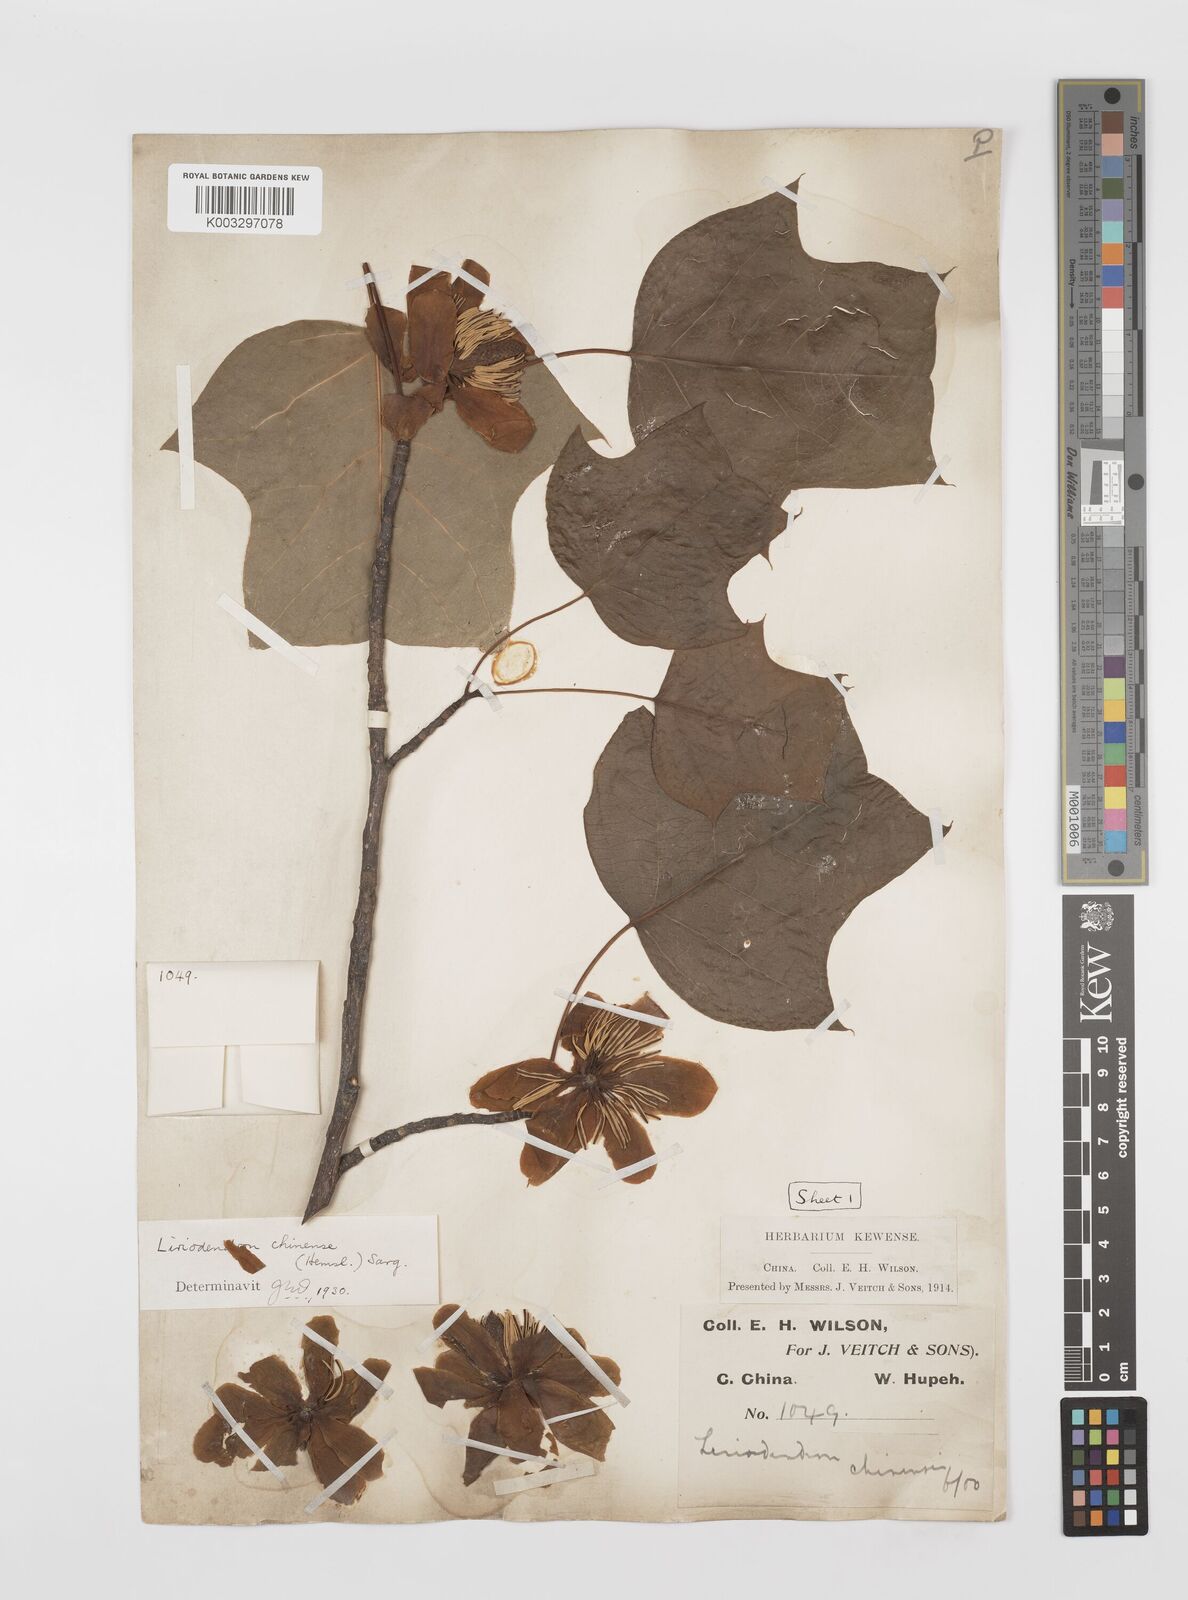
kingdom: Plantae
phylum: Tracheophyta
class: Magnoliopsida
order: Magnoliales
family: Magnoliaceae
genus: Liriodendron
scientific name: Liriodendron chinense
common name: Chinese tuliptree
